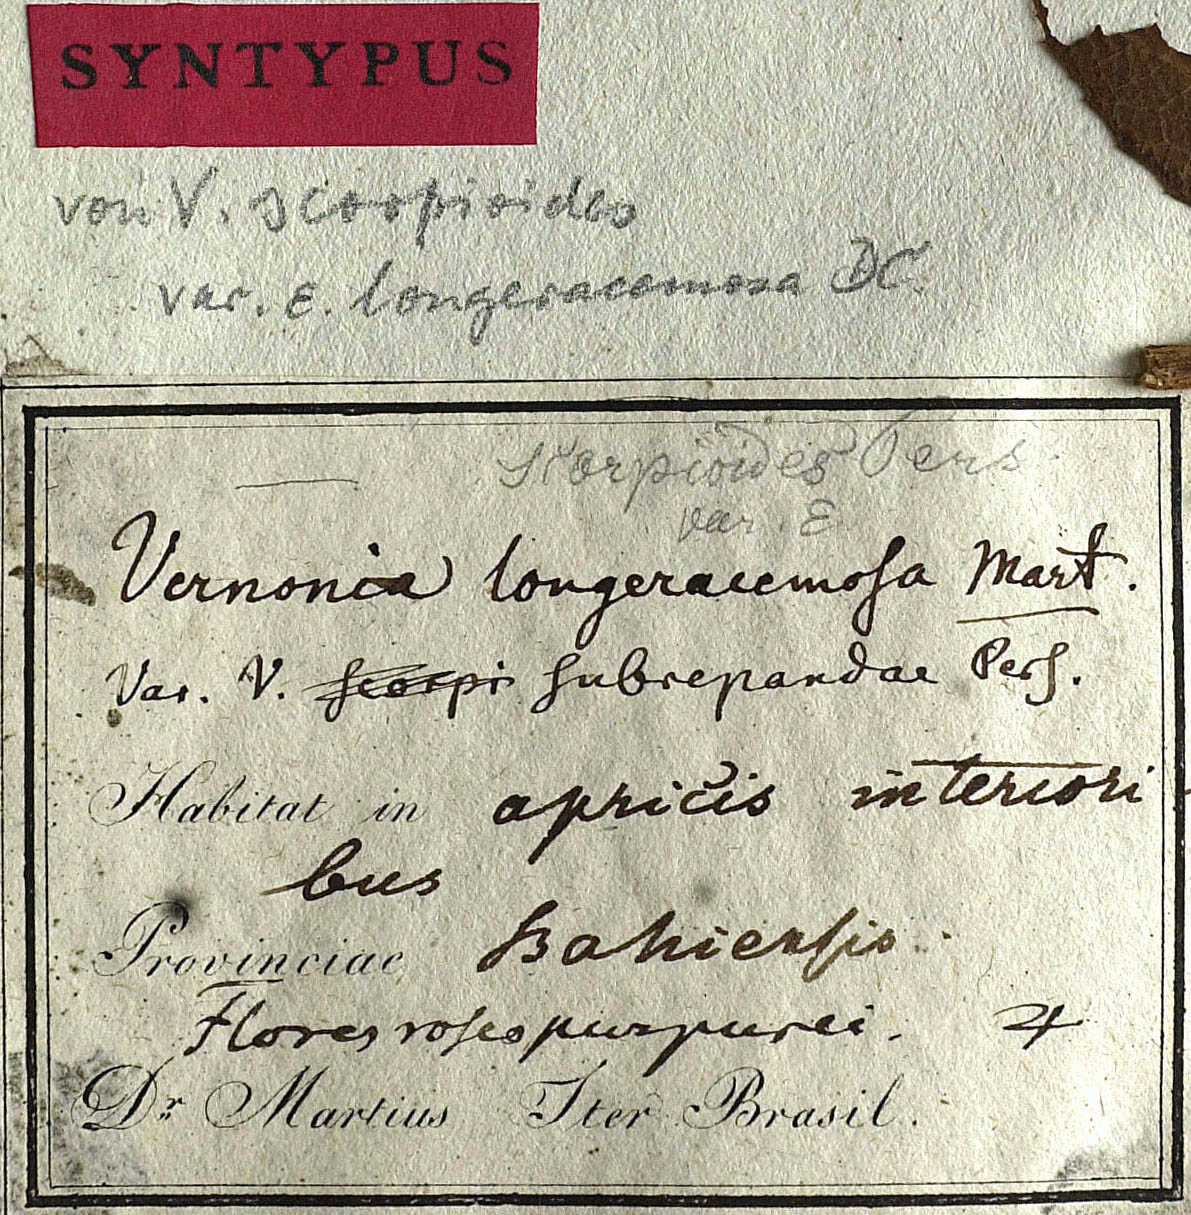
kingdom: Plantae
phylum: Tracheophyta
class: Magnoliopsida
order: Asterales
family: Asteraceae
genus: Cyrtocymura
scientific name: Cyrtocymura scorpioides
